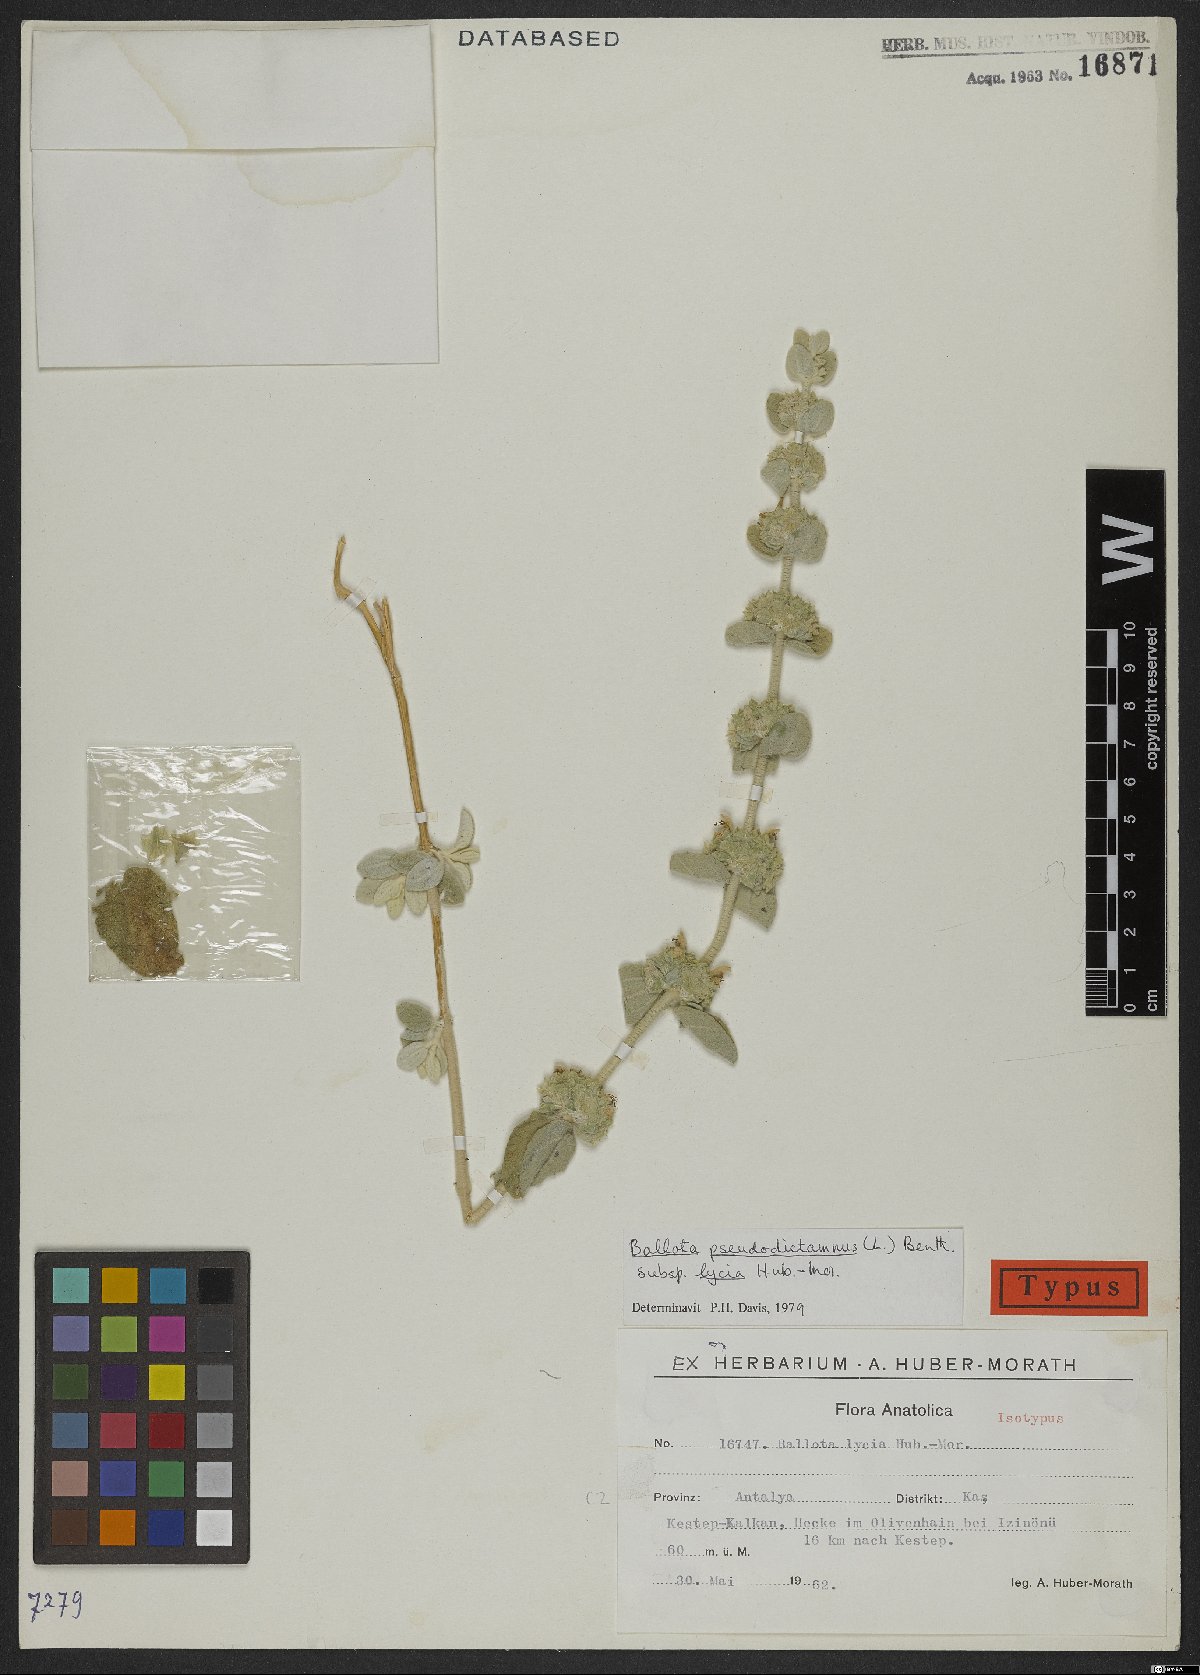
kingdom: Plantae
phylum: Tracheophyta
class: Magnoliopsida
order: Lamiales
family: Lamiaceae
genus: Pseudodictamnus
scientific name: Pseudodictamnus mediterraneus
